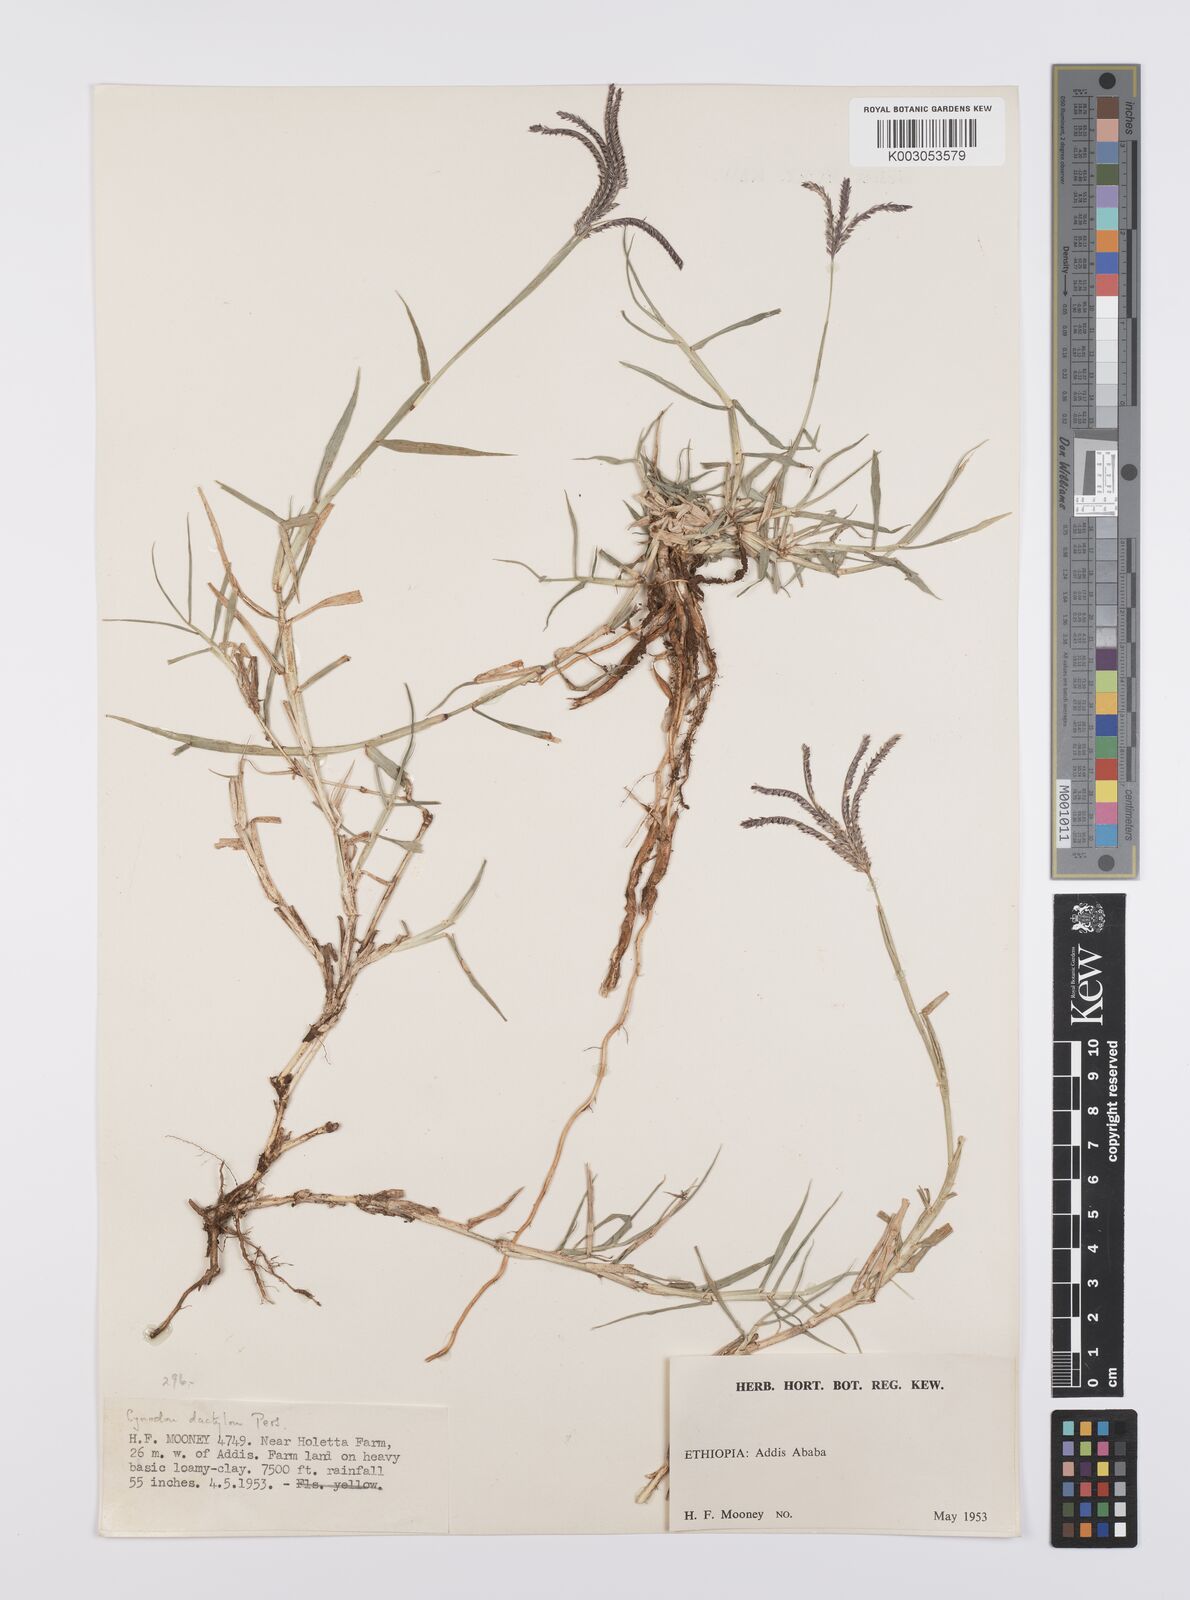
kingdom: Plantae
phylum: Tracheophyta
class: Liliopsida
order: Poales
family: Poaceae
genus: Cynodon
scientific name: Cynodon dactylon
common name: Bermuda grass
